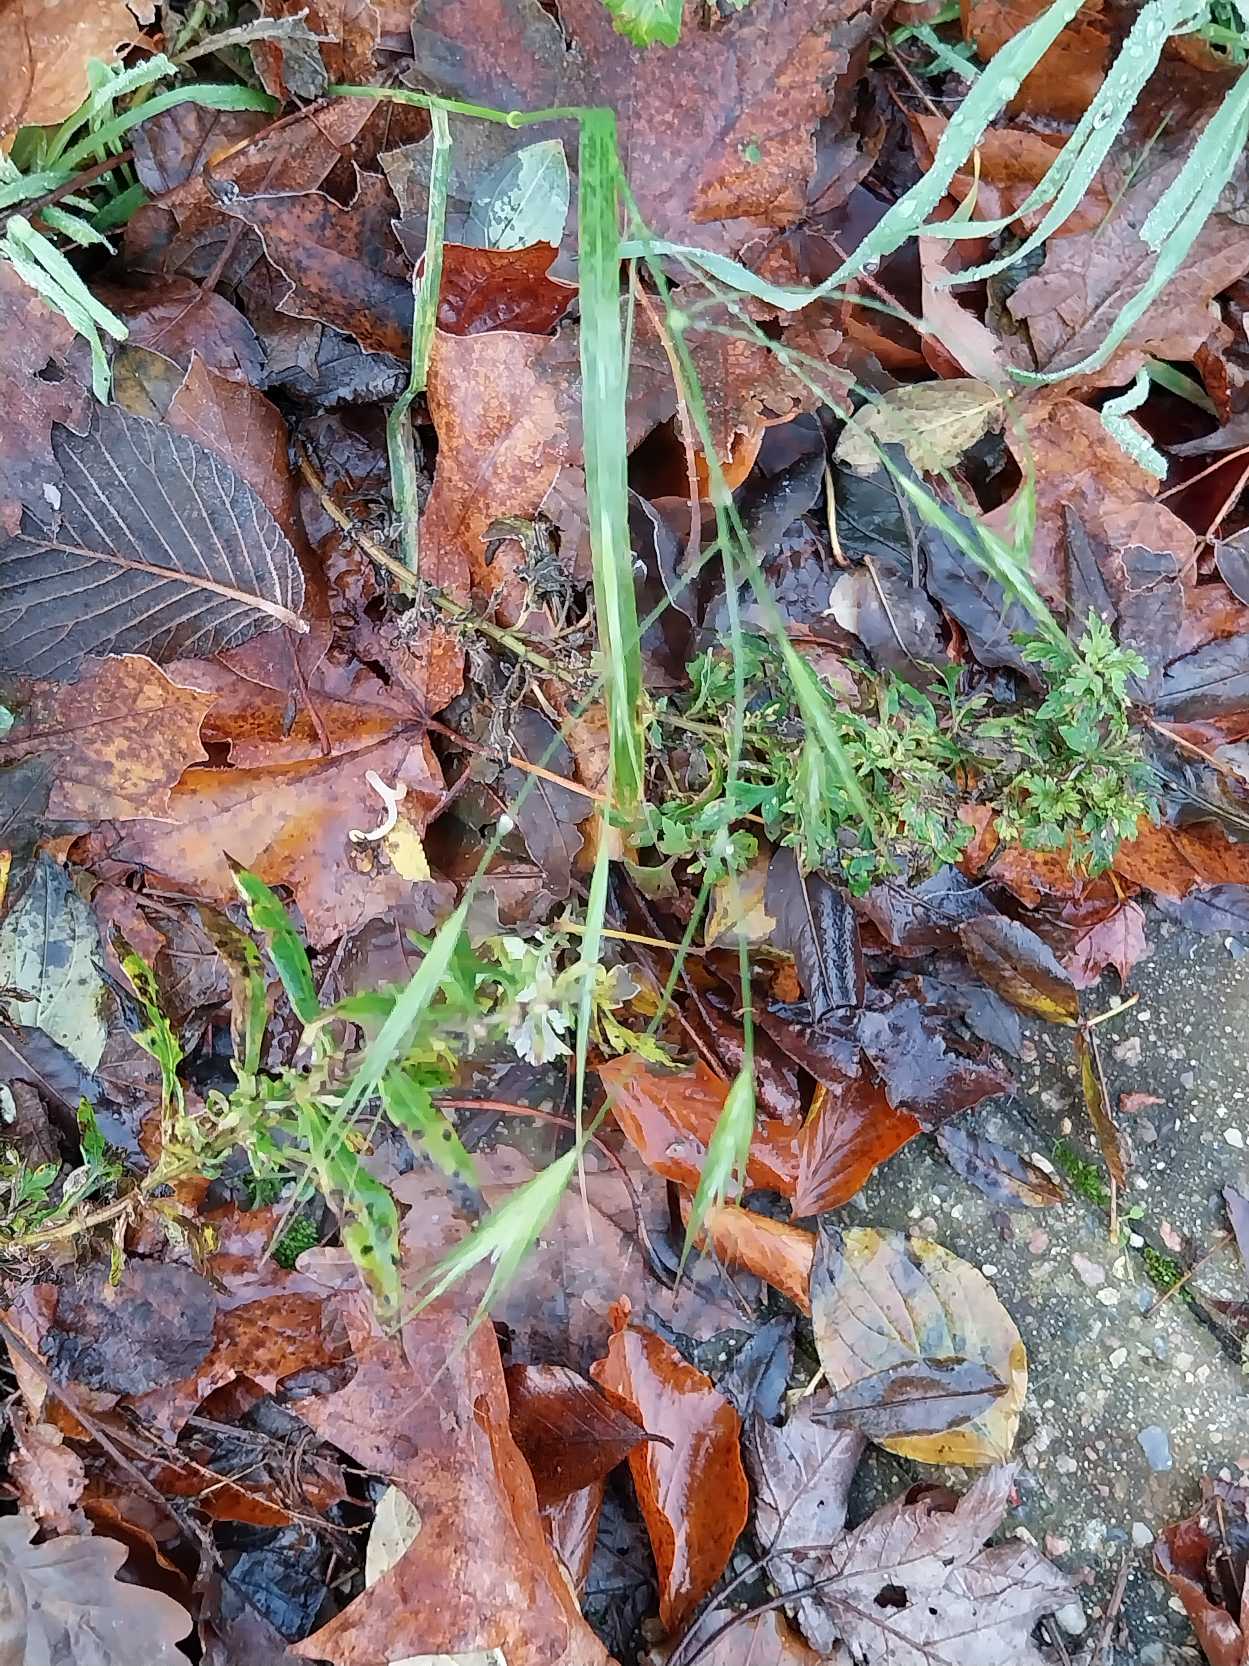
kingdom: Plantae
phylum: Tracheophyta
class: Liliopsida
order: Poales
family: Poaceae
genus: Bromus
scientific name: Bromus sterilis
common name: Gold hejre
